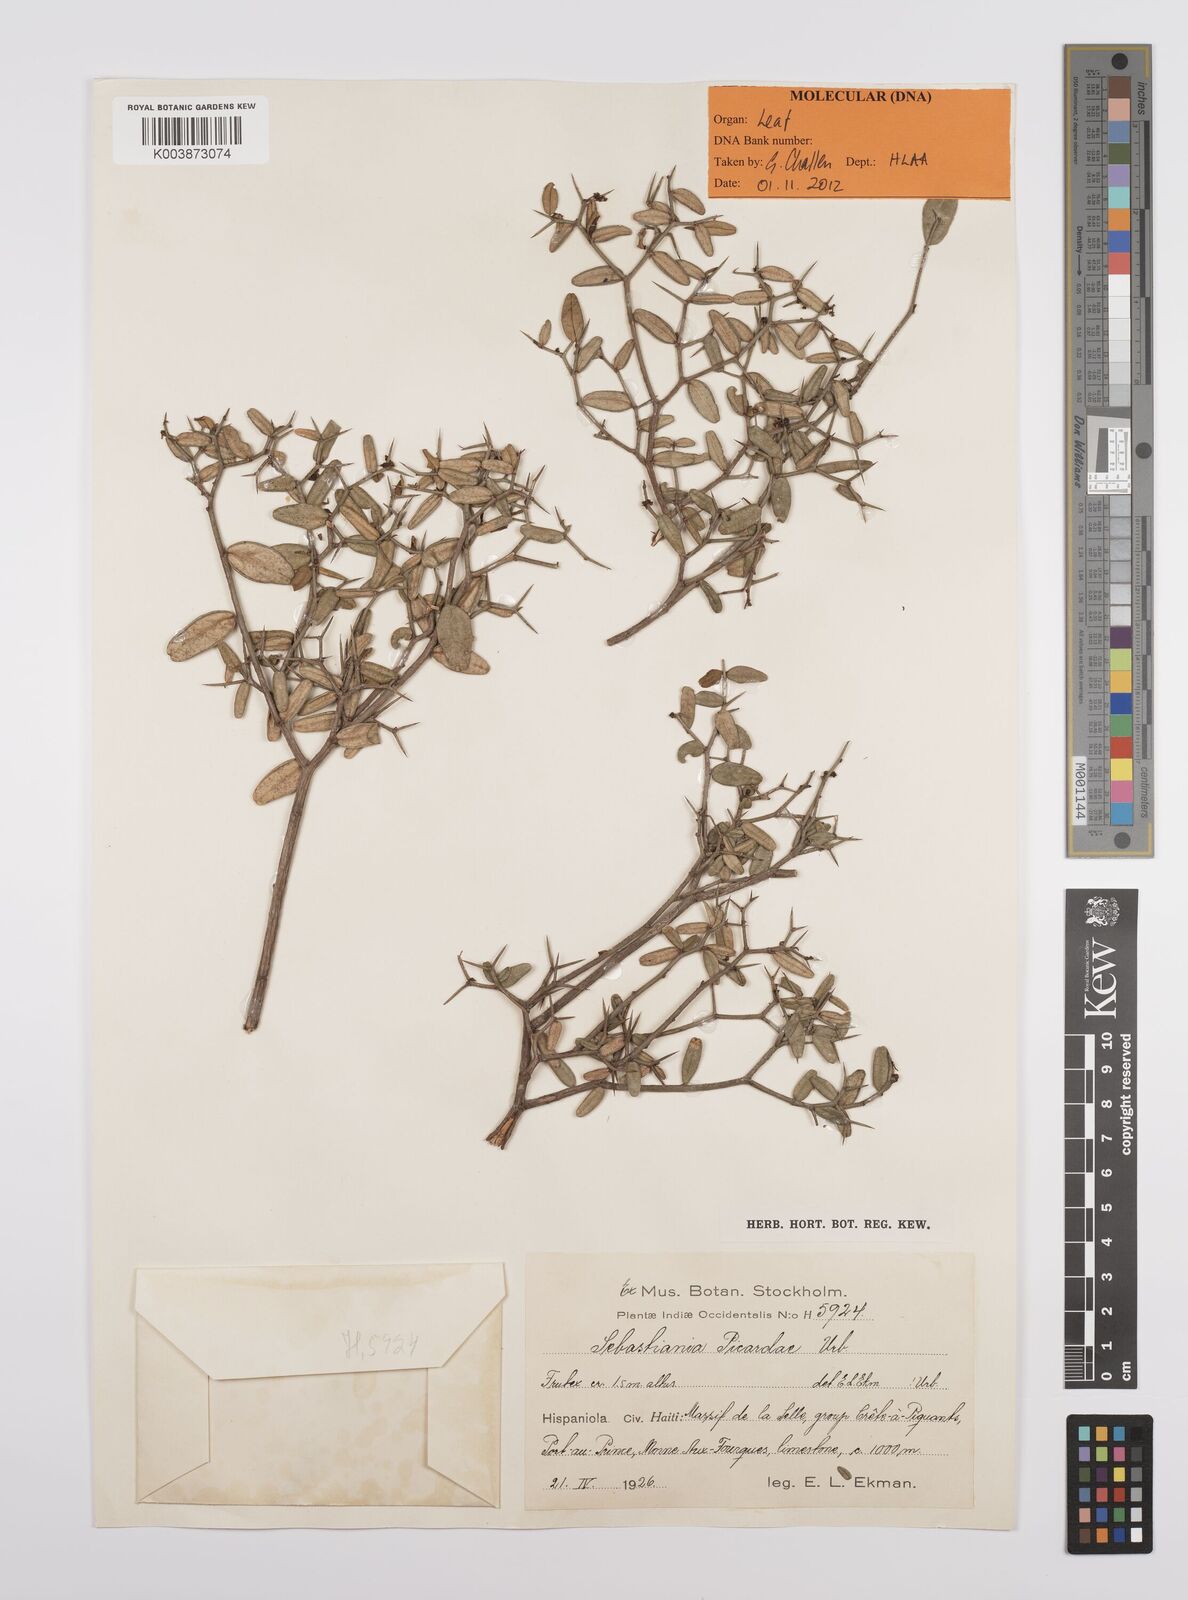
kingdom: Plantae
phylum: Tracheophyta
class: Magnoliopsida
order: Malpighiales
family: Euphorbiaceae
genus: Sebastiania
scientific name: Sebastiania picardae
